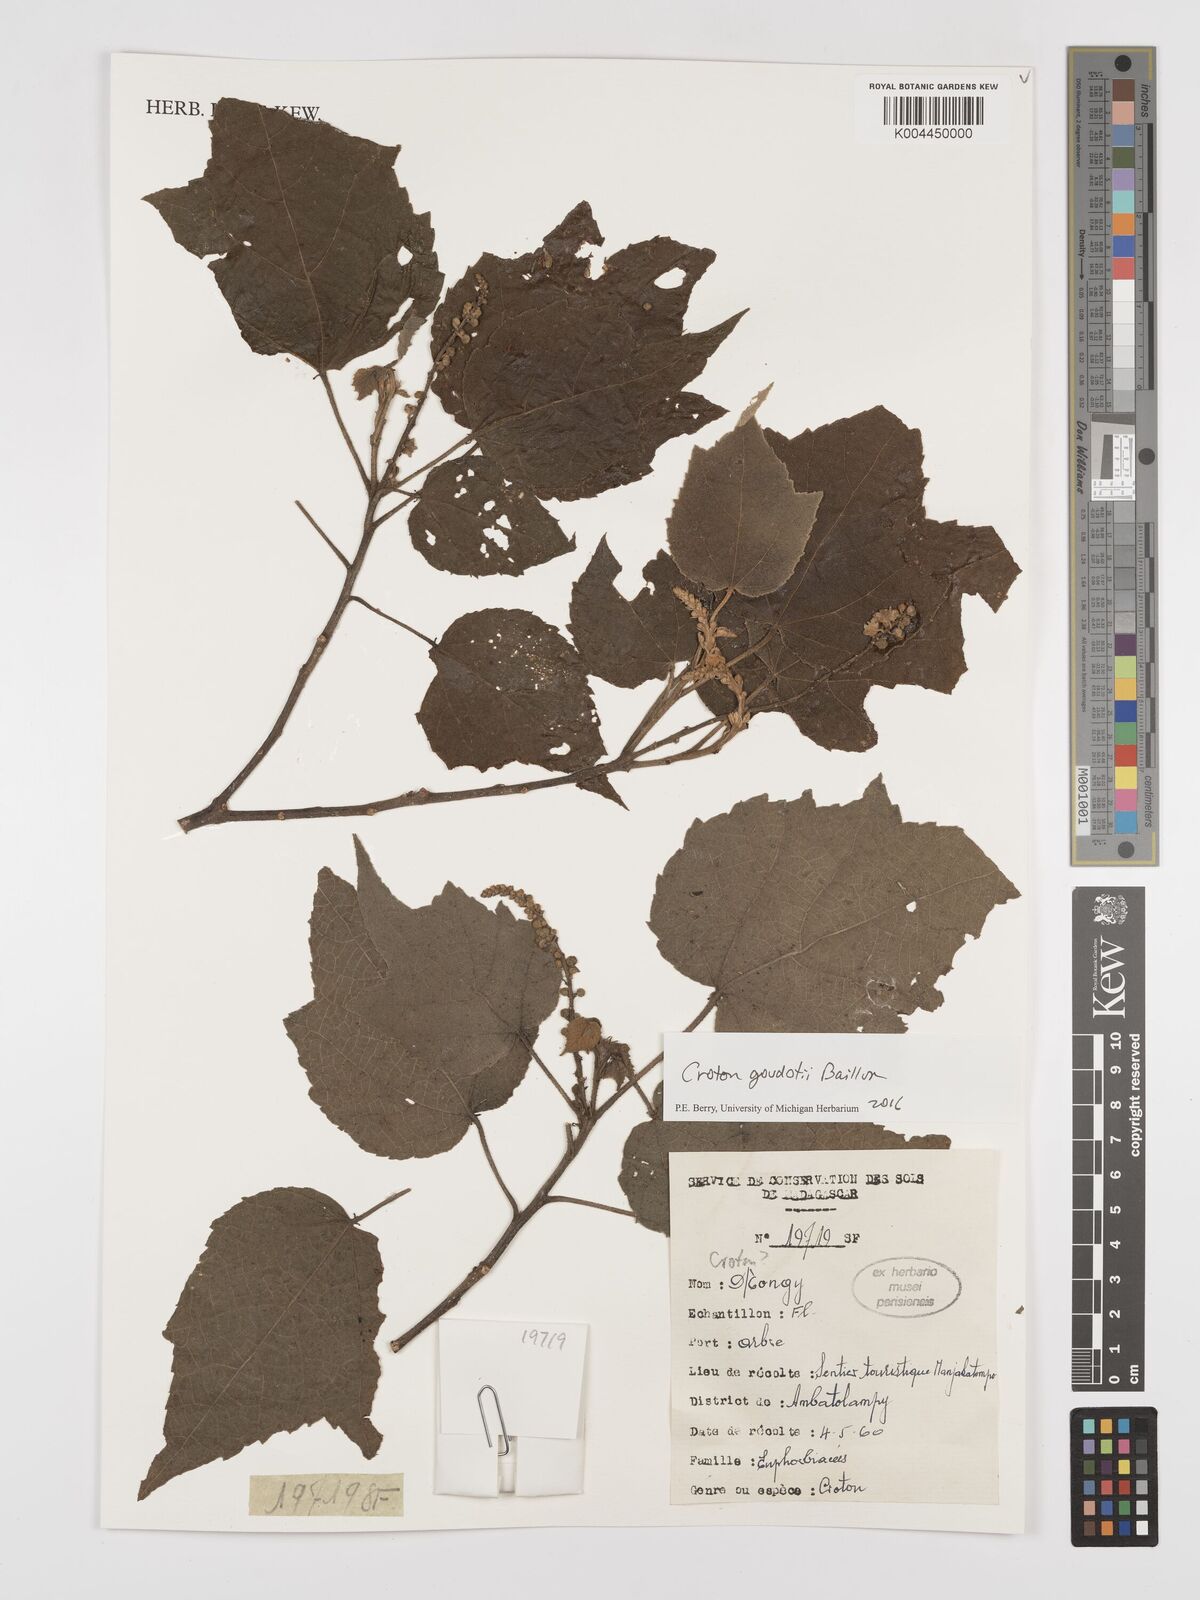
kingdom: Plantae
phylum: Tracheophyta
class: Magnoliopsida
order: Malpighiales
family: Euphorbiaceae
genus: Croton
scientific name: Croton goudotii
